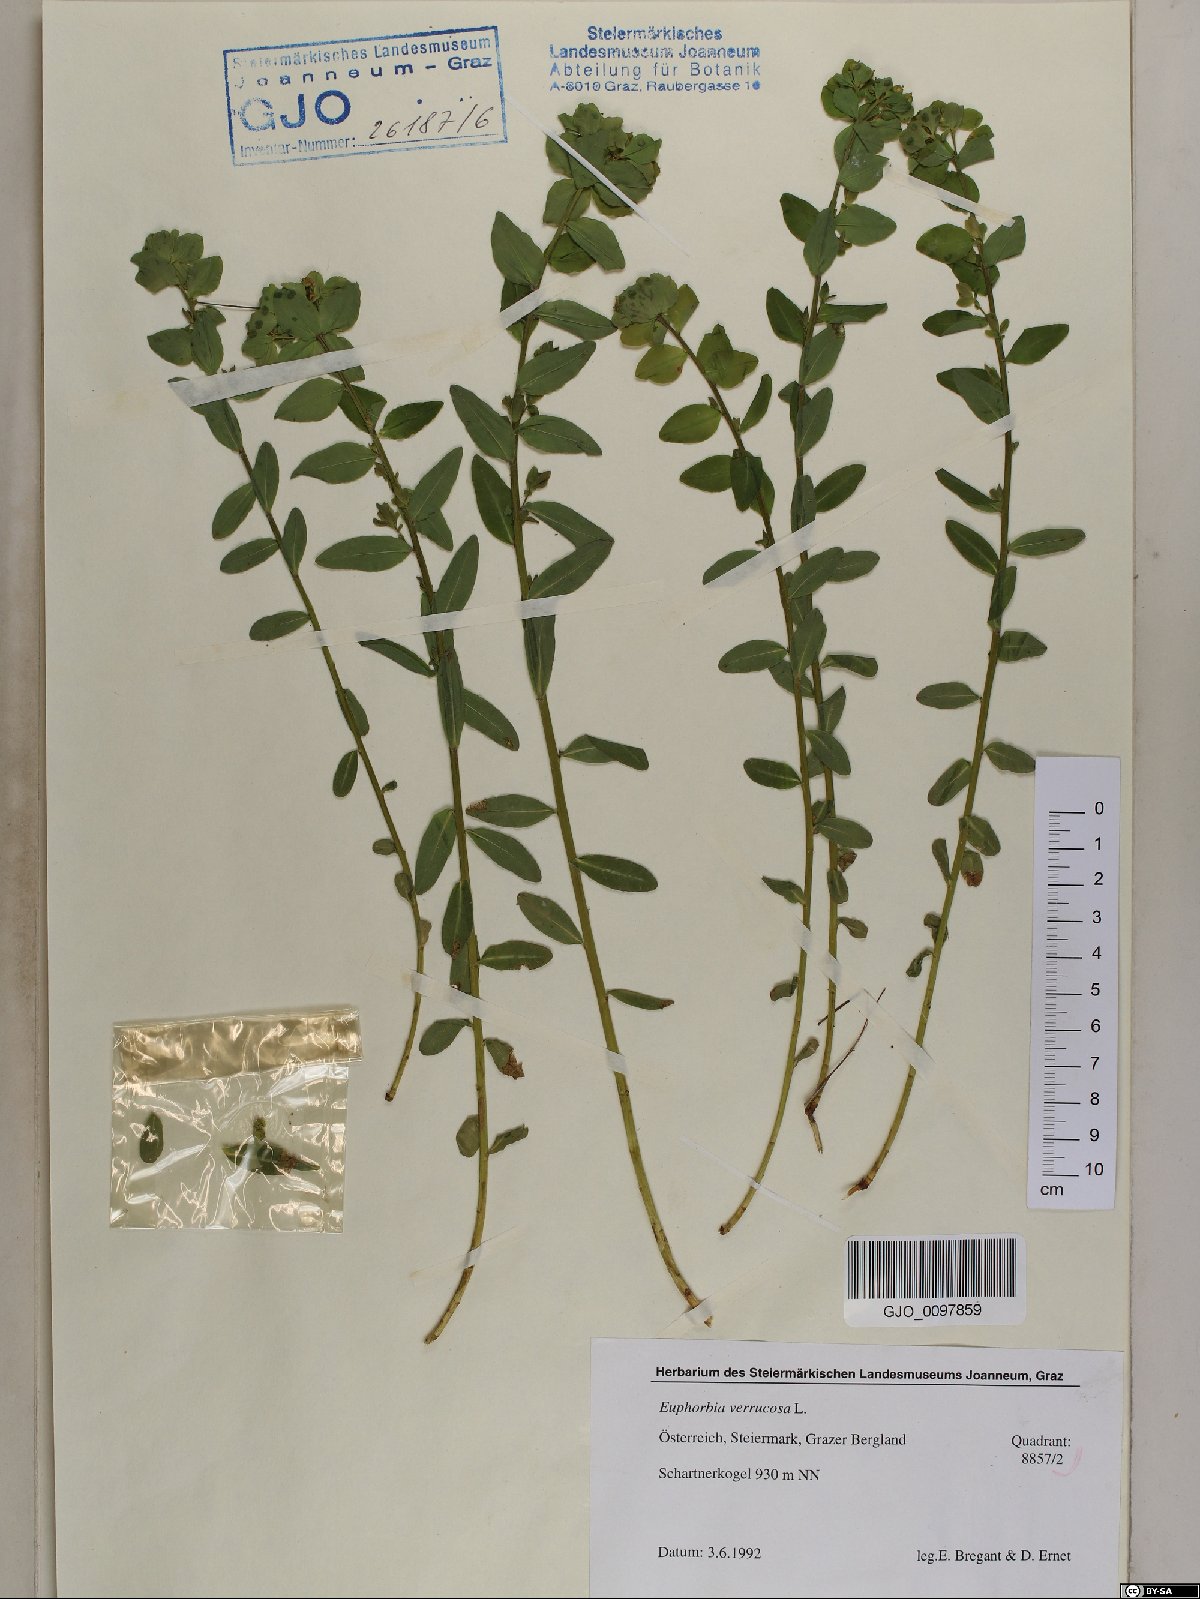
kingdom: Plantae
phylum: Tracheophyta
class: Magnoliopsida
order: Malpighiales
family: Euphorbiaceae
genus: Euphorbia
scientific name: Euphorbia verrucosa
